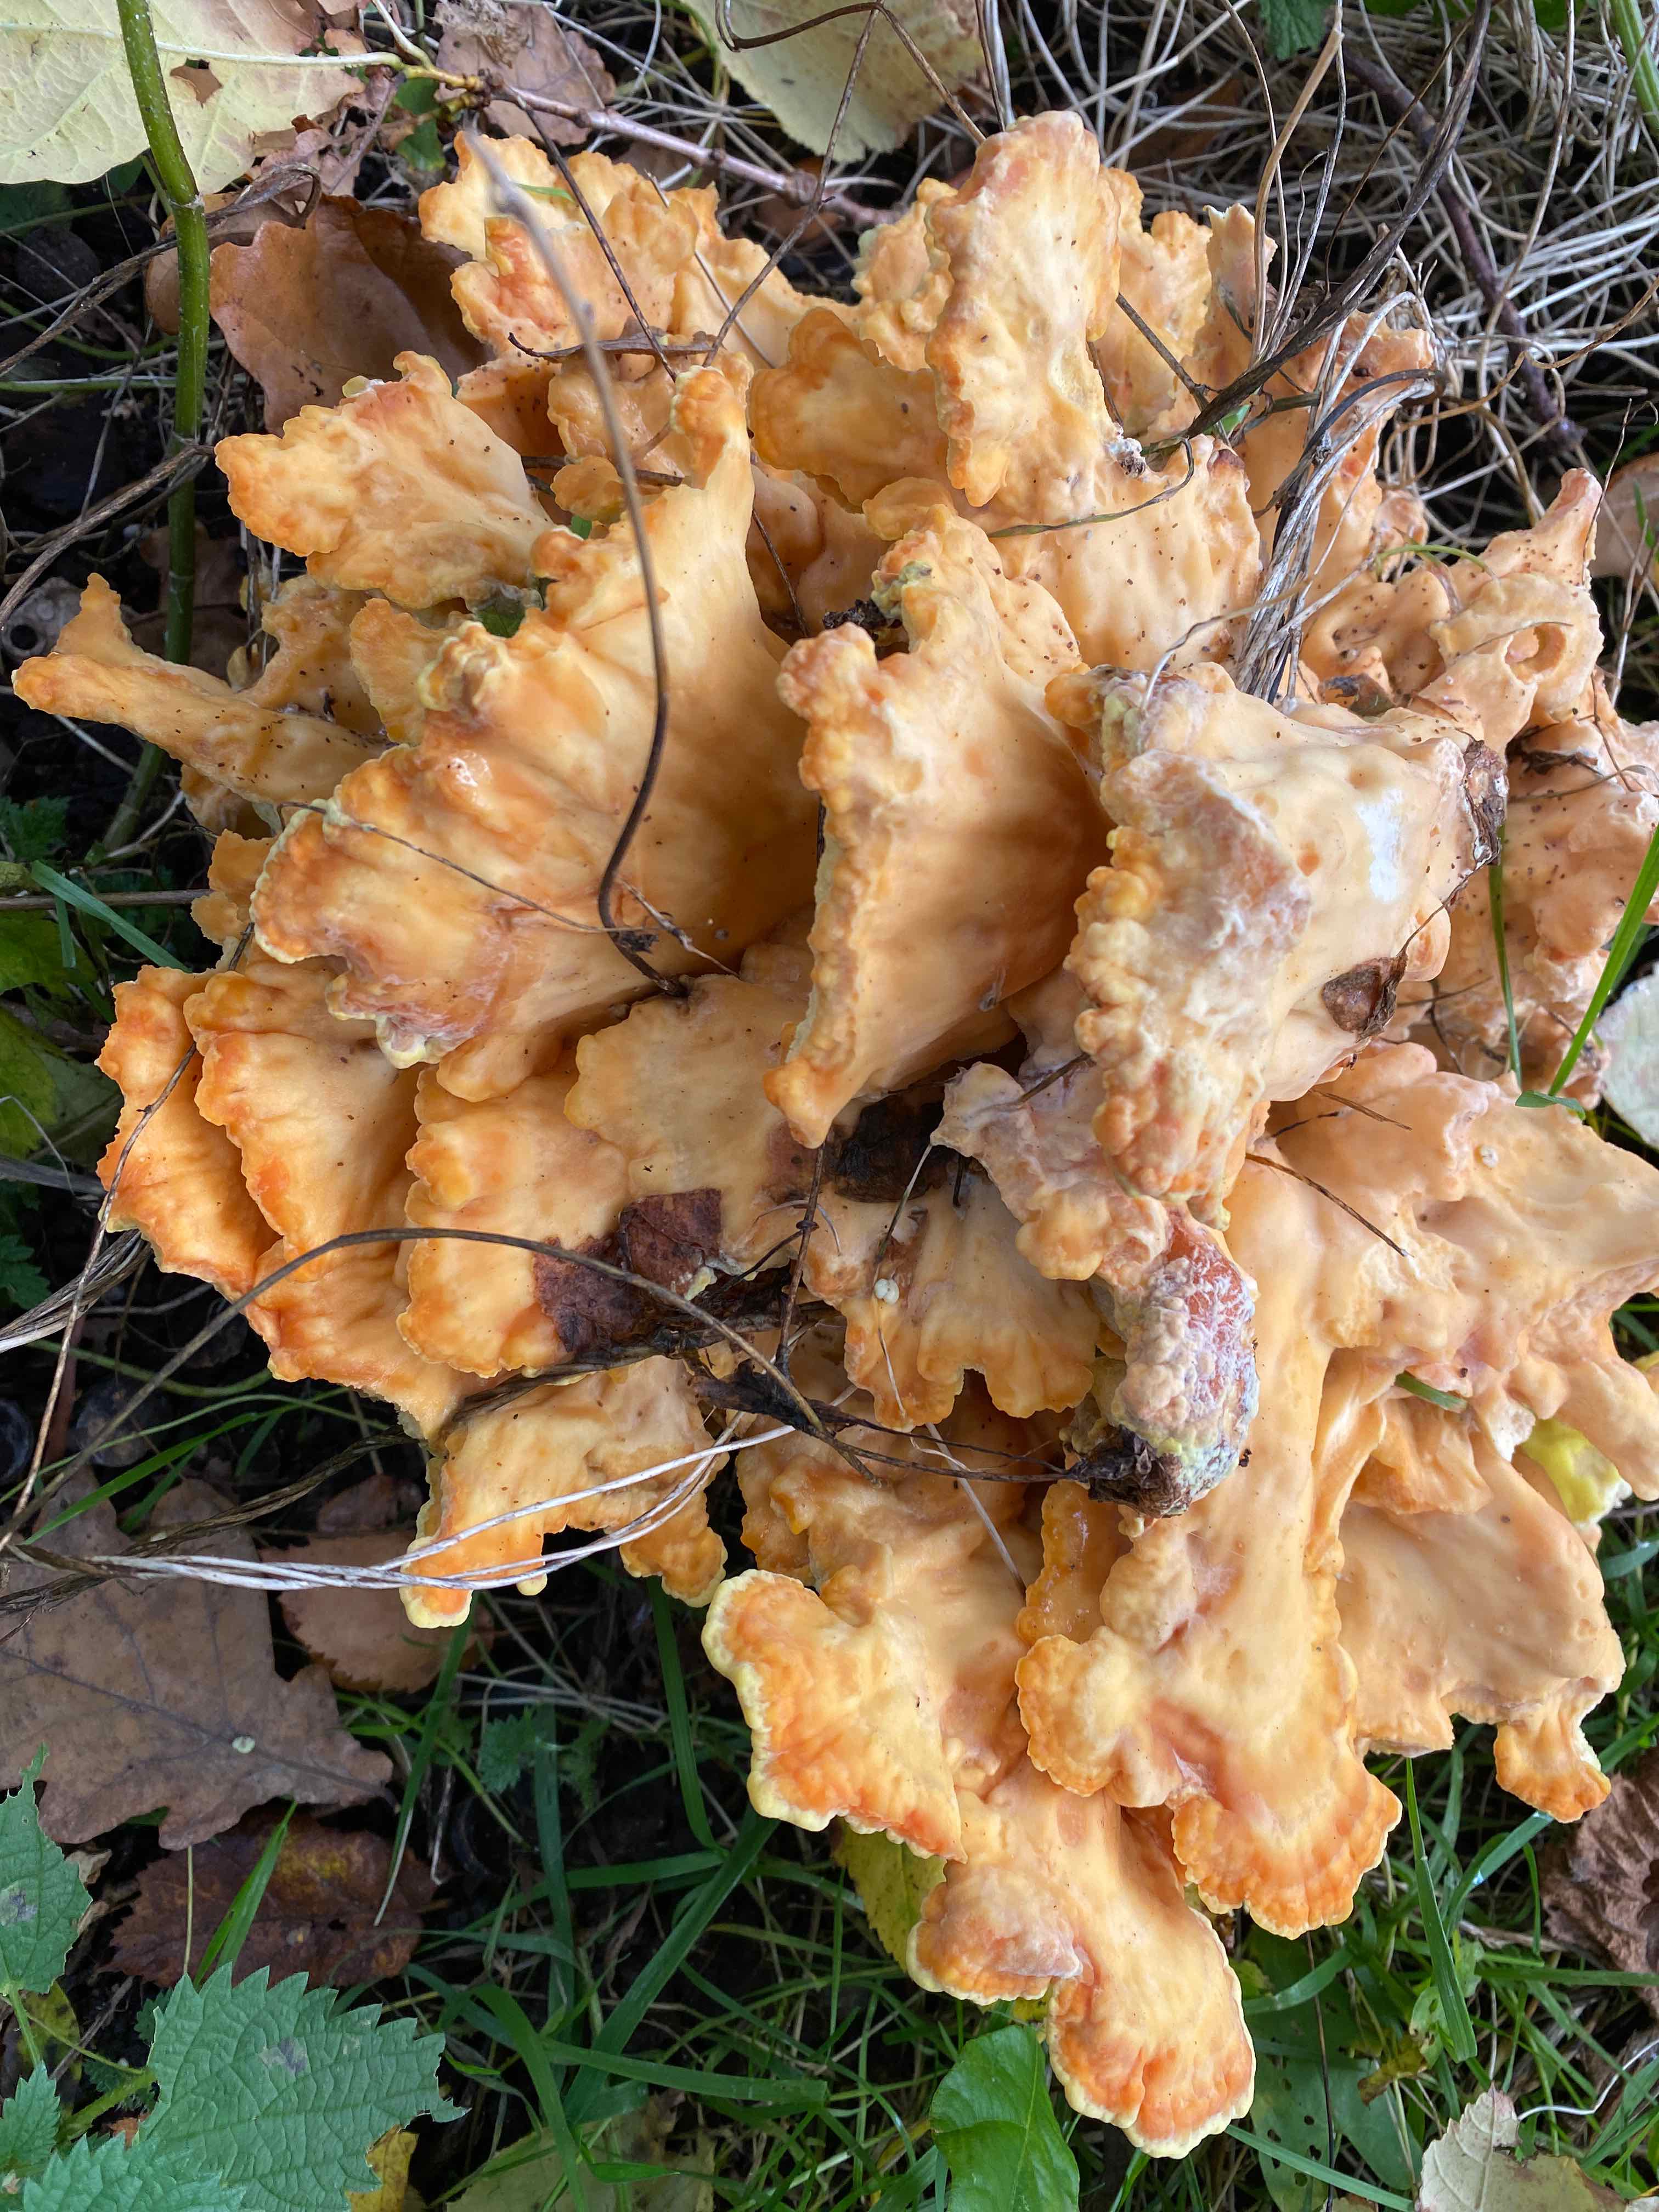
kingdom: Fungi
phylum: Basidiomycota
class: Agaricomycetes
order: Polyporales
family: Laetiporaceae
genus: Laetiporus
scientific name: Laetiporus sulphureus
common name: svovlporesvamp
